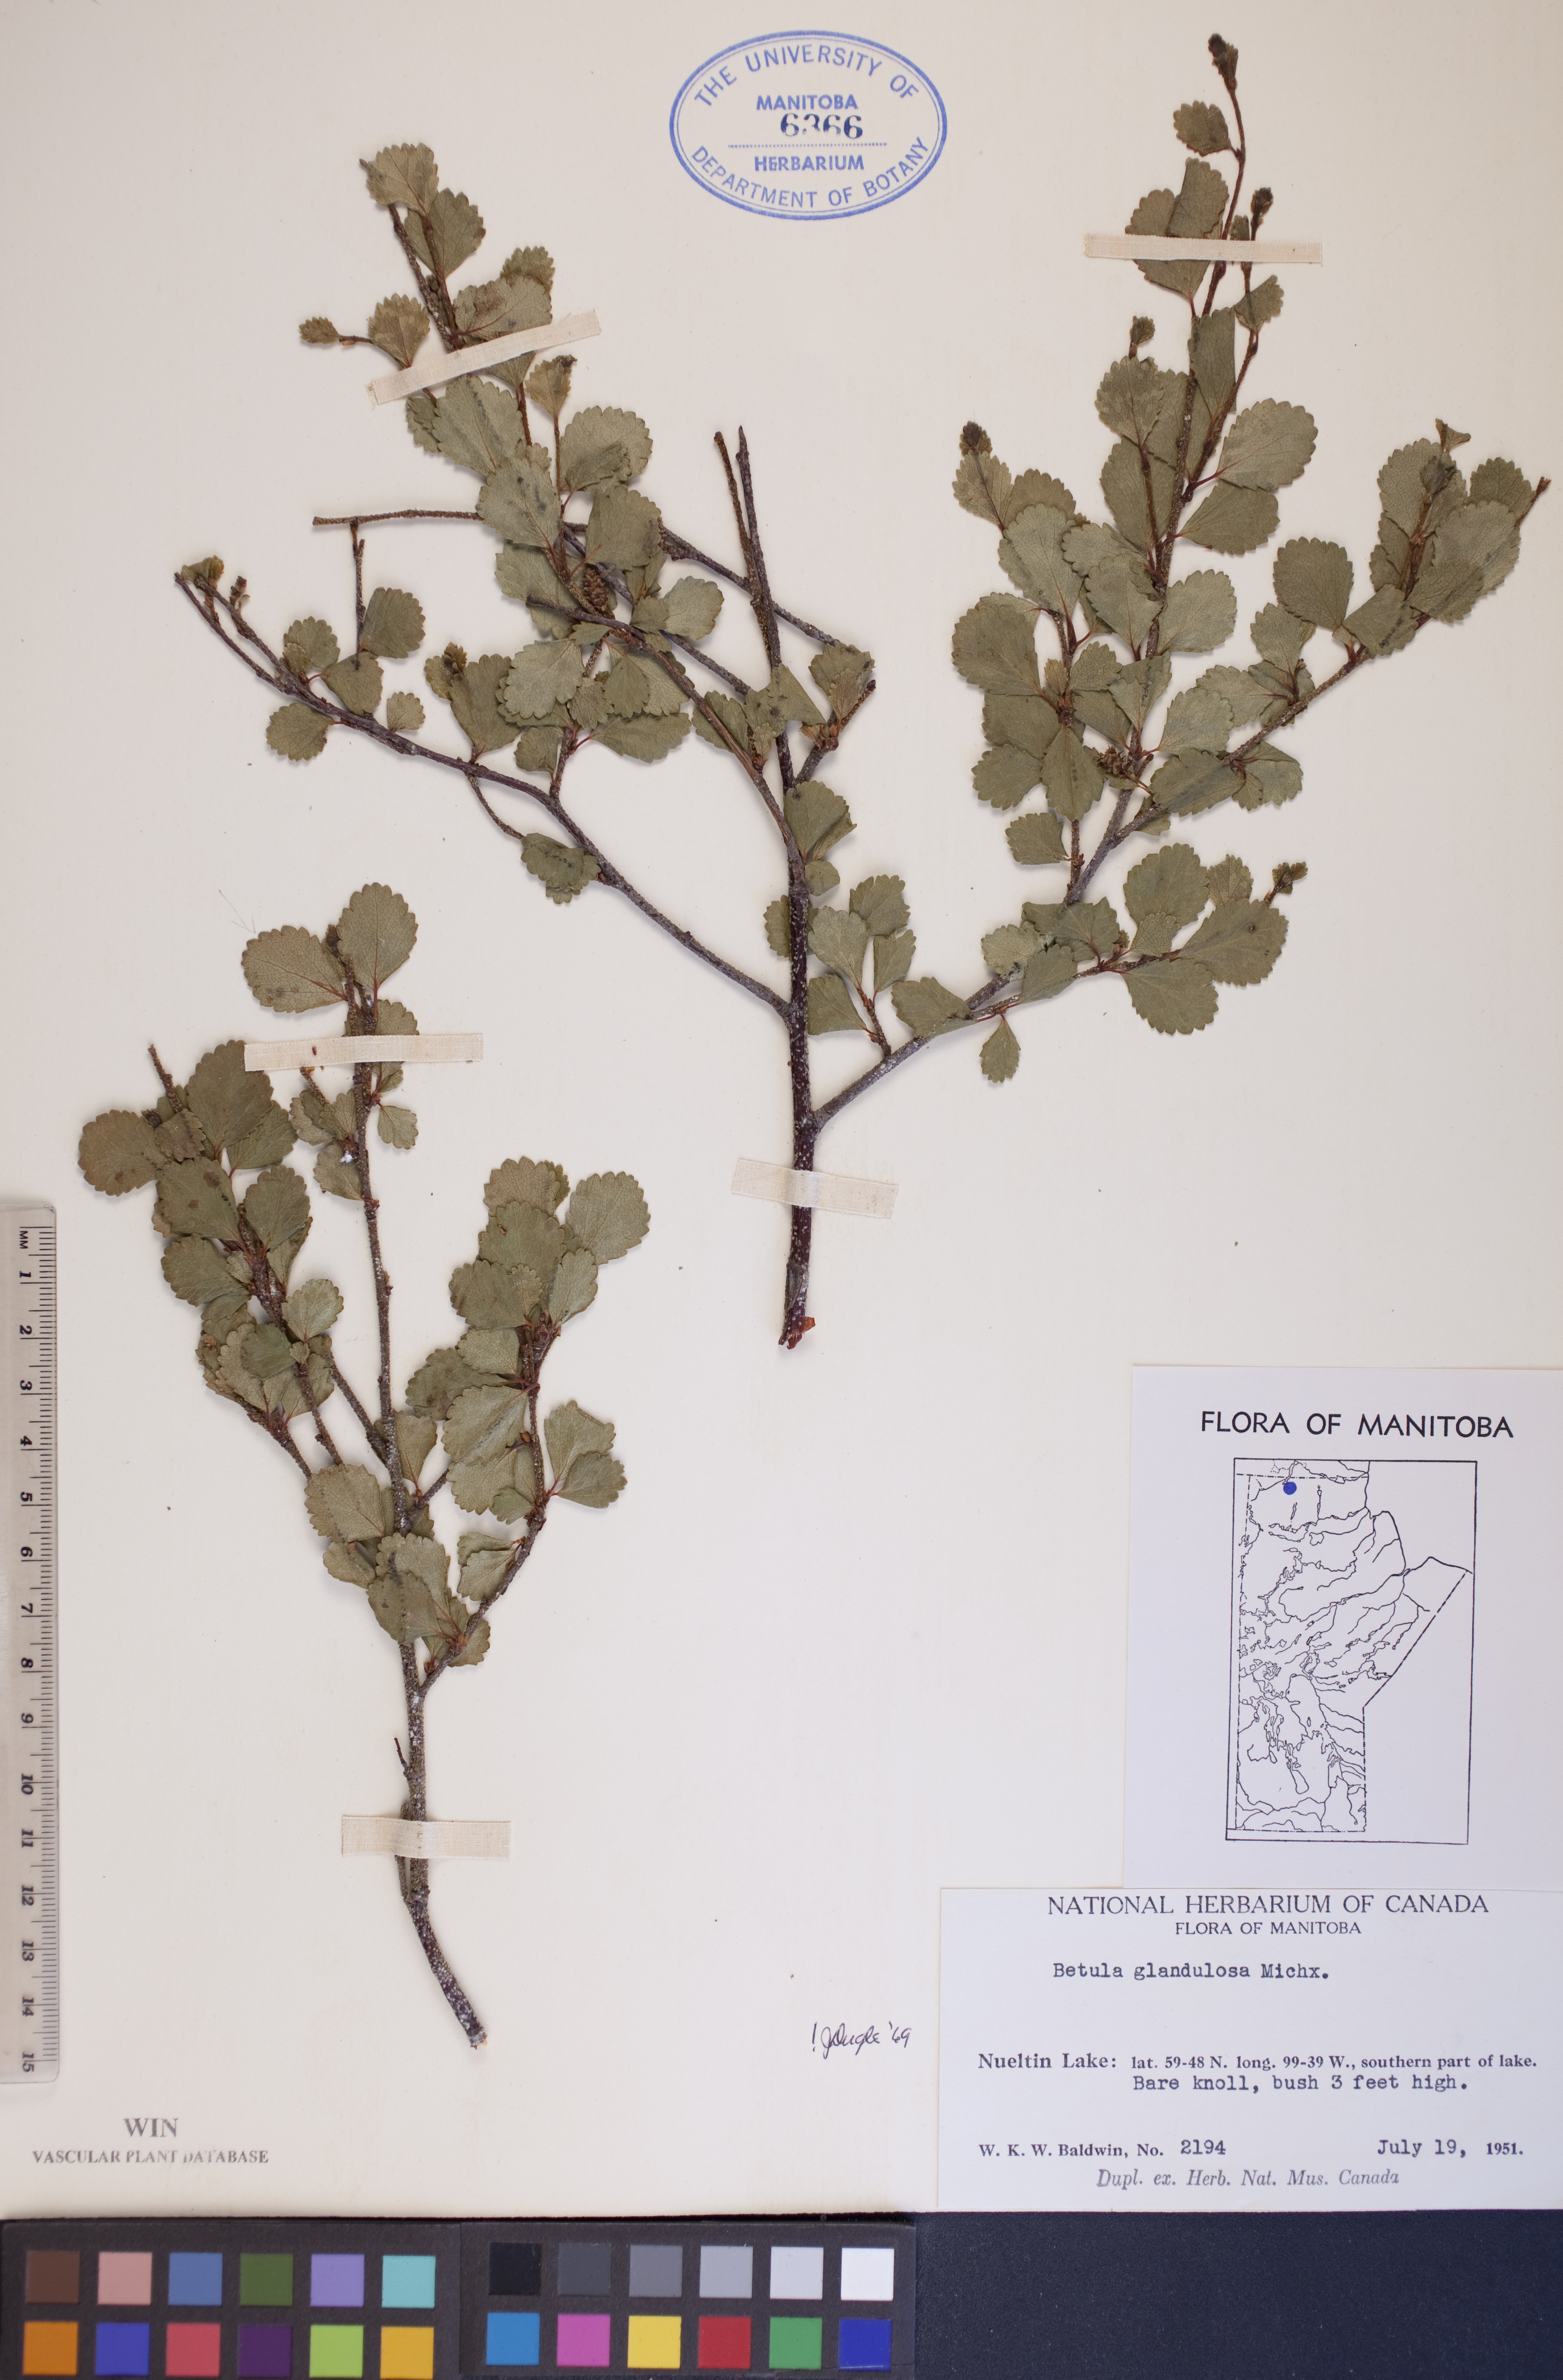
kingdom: Plantae
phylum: Tracheophyta
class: Magnoliopsida
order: Fagales
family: Betulaceae
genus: Betula
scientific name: Betula glandulosa
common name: Dwarf birch
